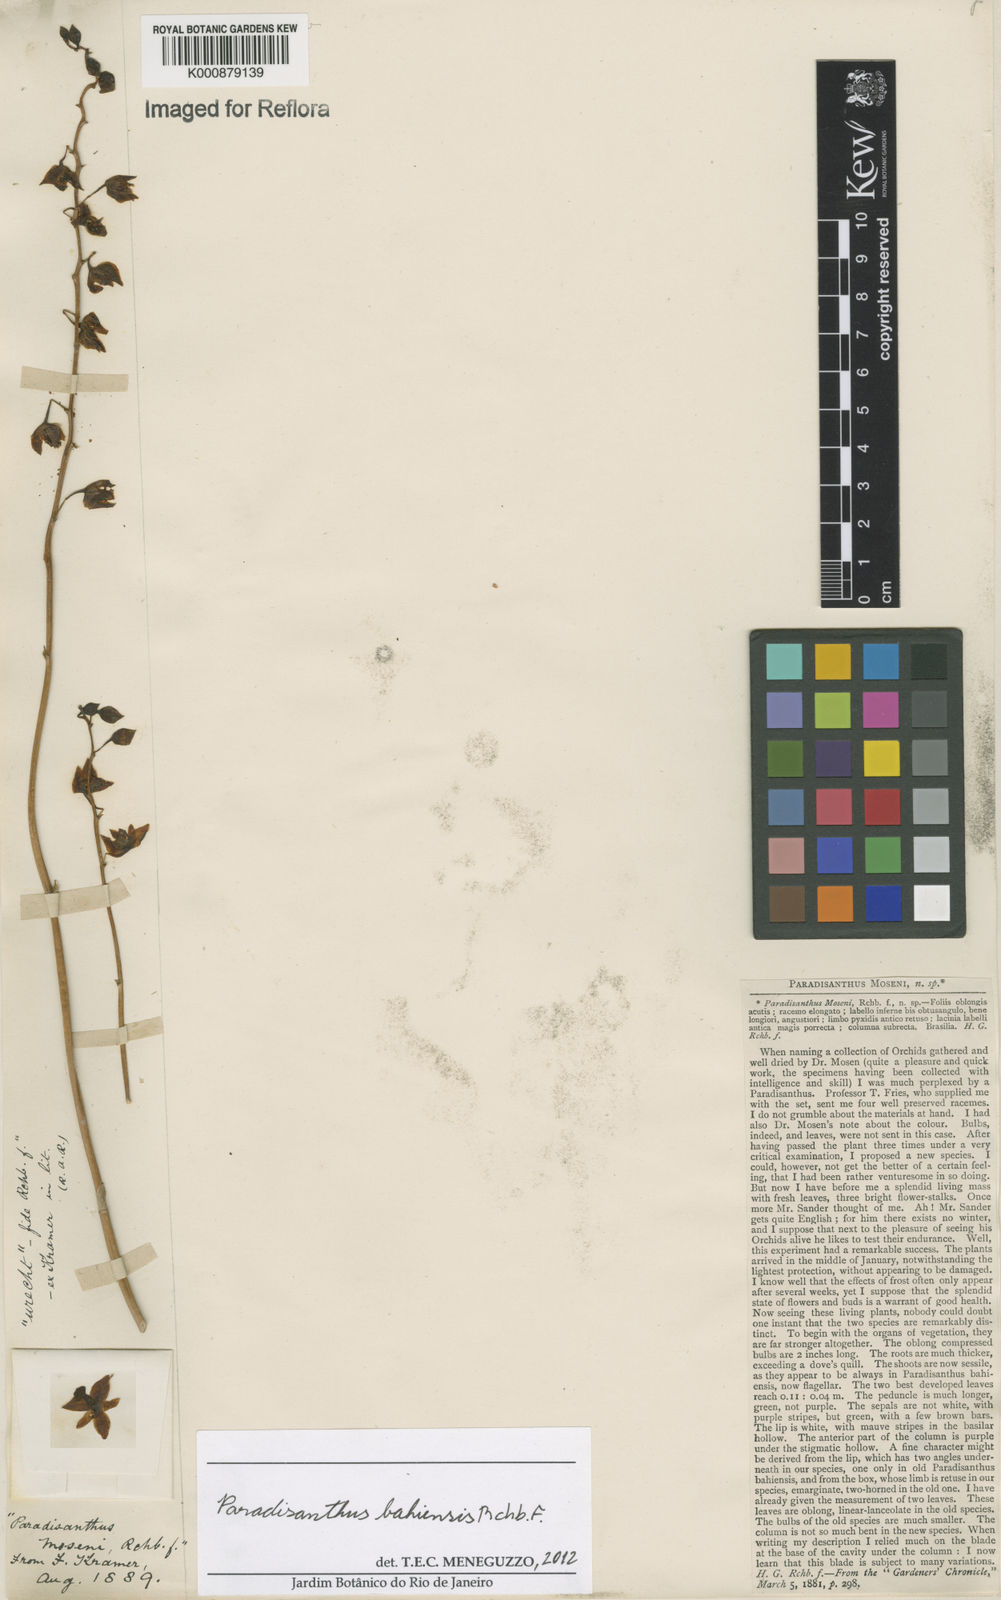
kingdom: Plantae
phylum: Tracheophyta
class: Liliopsida
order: Asparagales
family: Orchidaceae
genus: Paradisanthus
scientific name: Paradisanthus bahiensis
